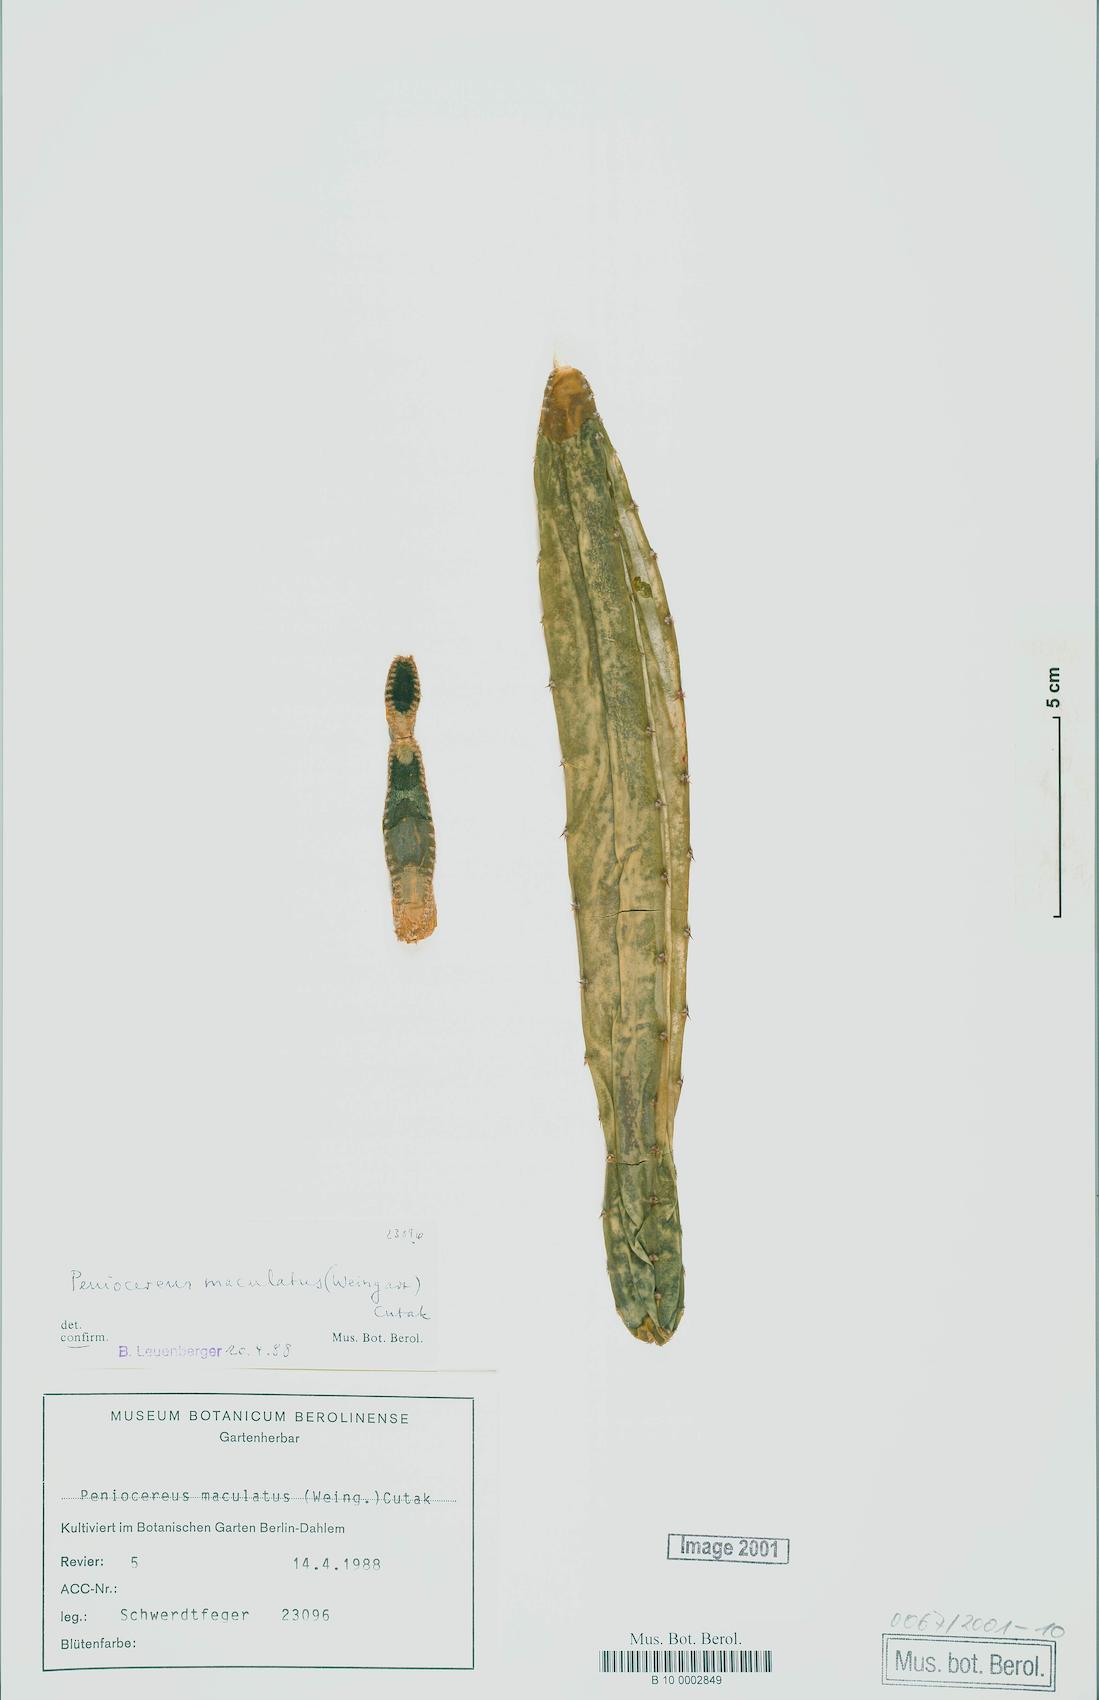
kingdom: Plantae
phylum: Tracheophyta
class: Magnoliopsida
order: Caryophyllales
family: Cactaceae
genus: Acanthocereus
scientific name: Acanthocereus maculatus
